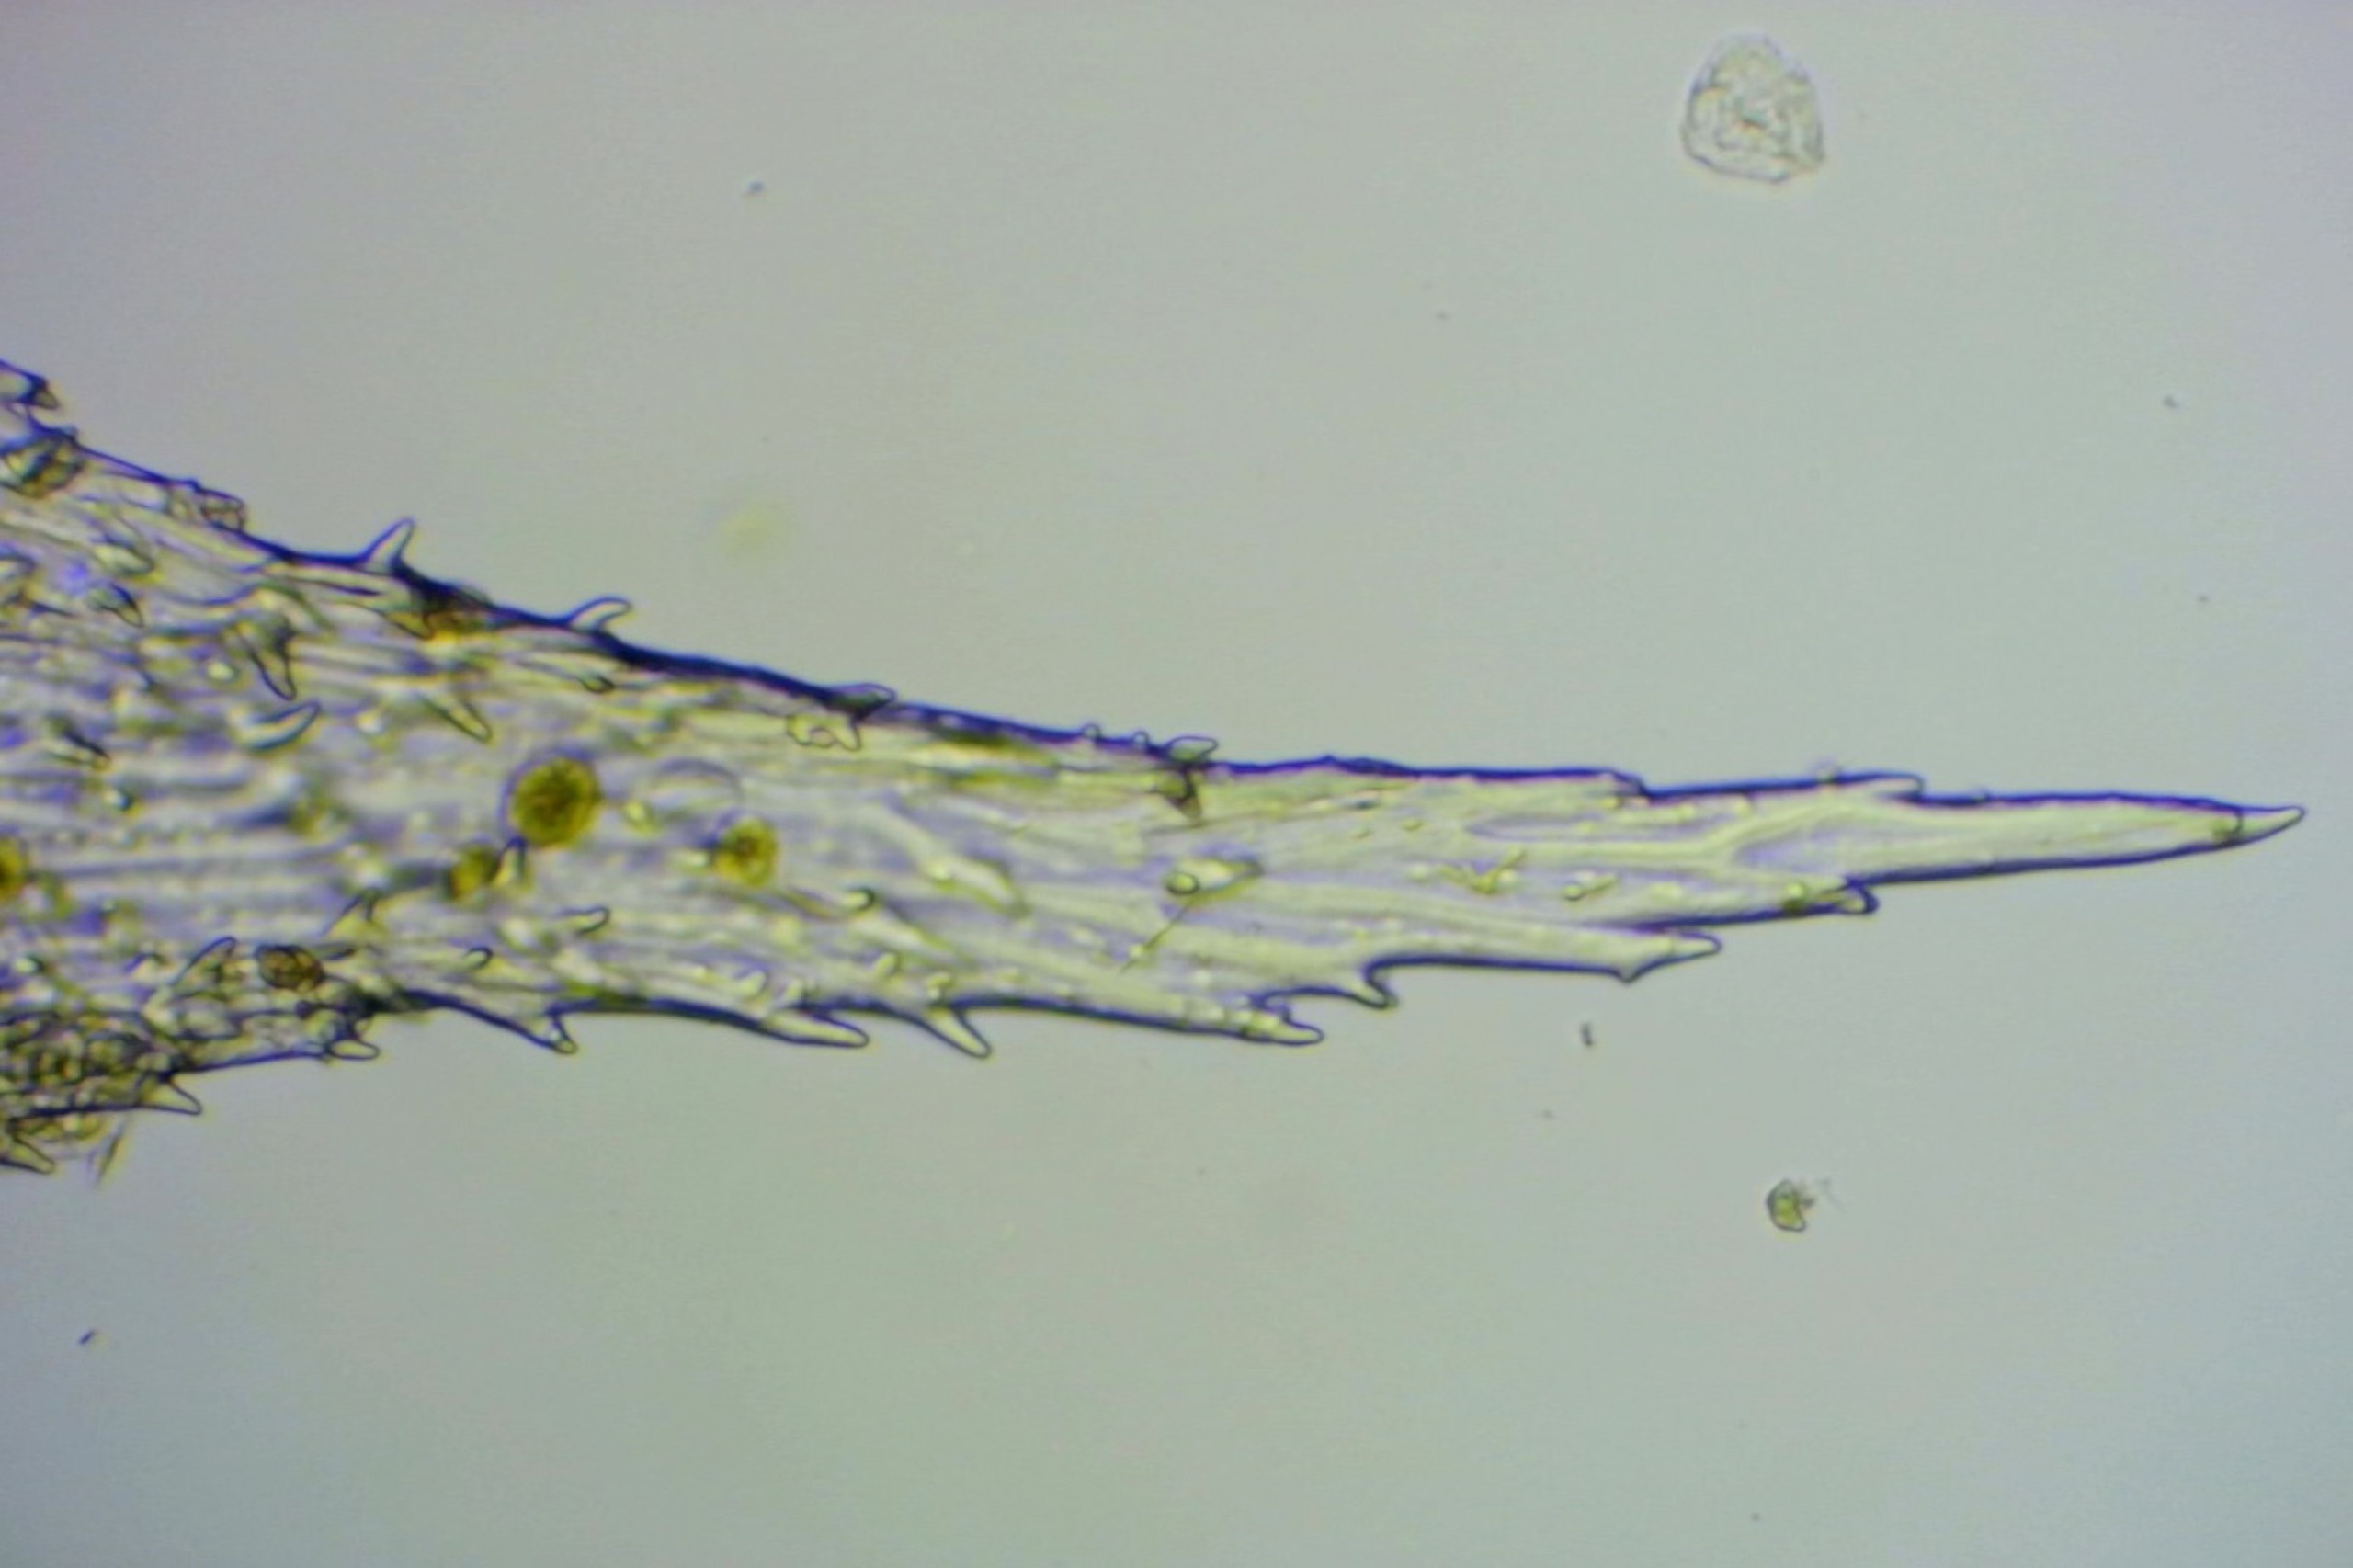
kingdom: Plantae
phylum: Bryophyta
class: Bryopsida
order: Hedwigiales
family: Hedwigiaceae
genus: Hedwigia
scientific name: Hedwigia stellata
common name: Stjernebladet hedwigia
